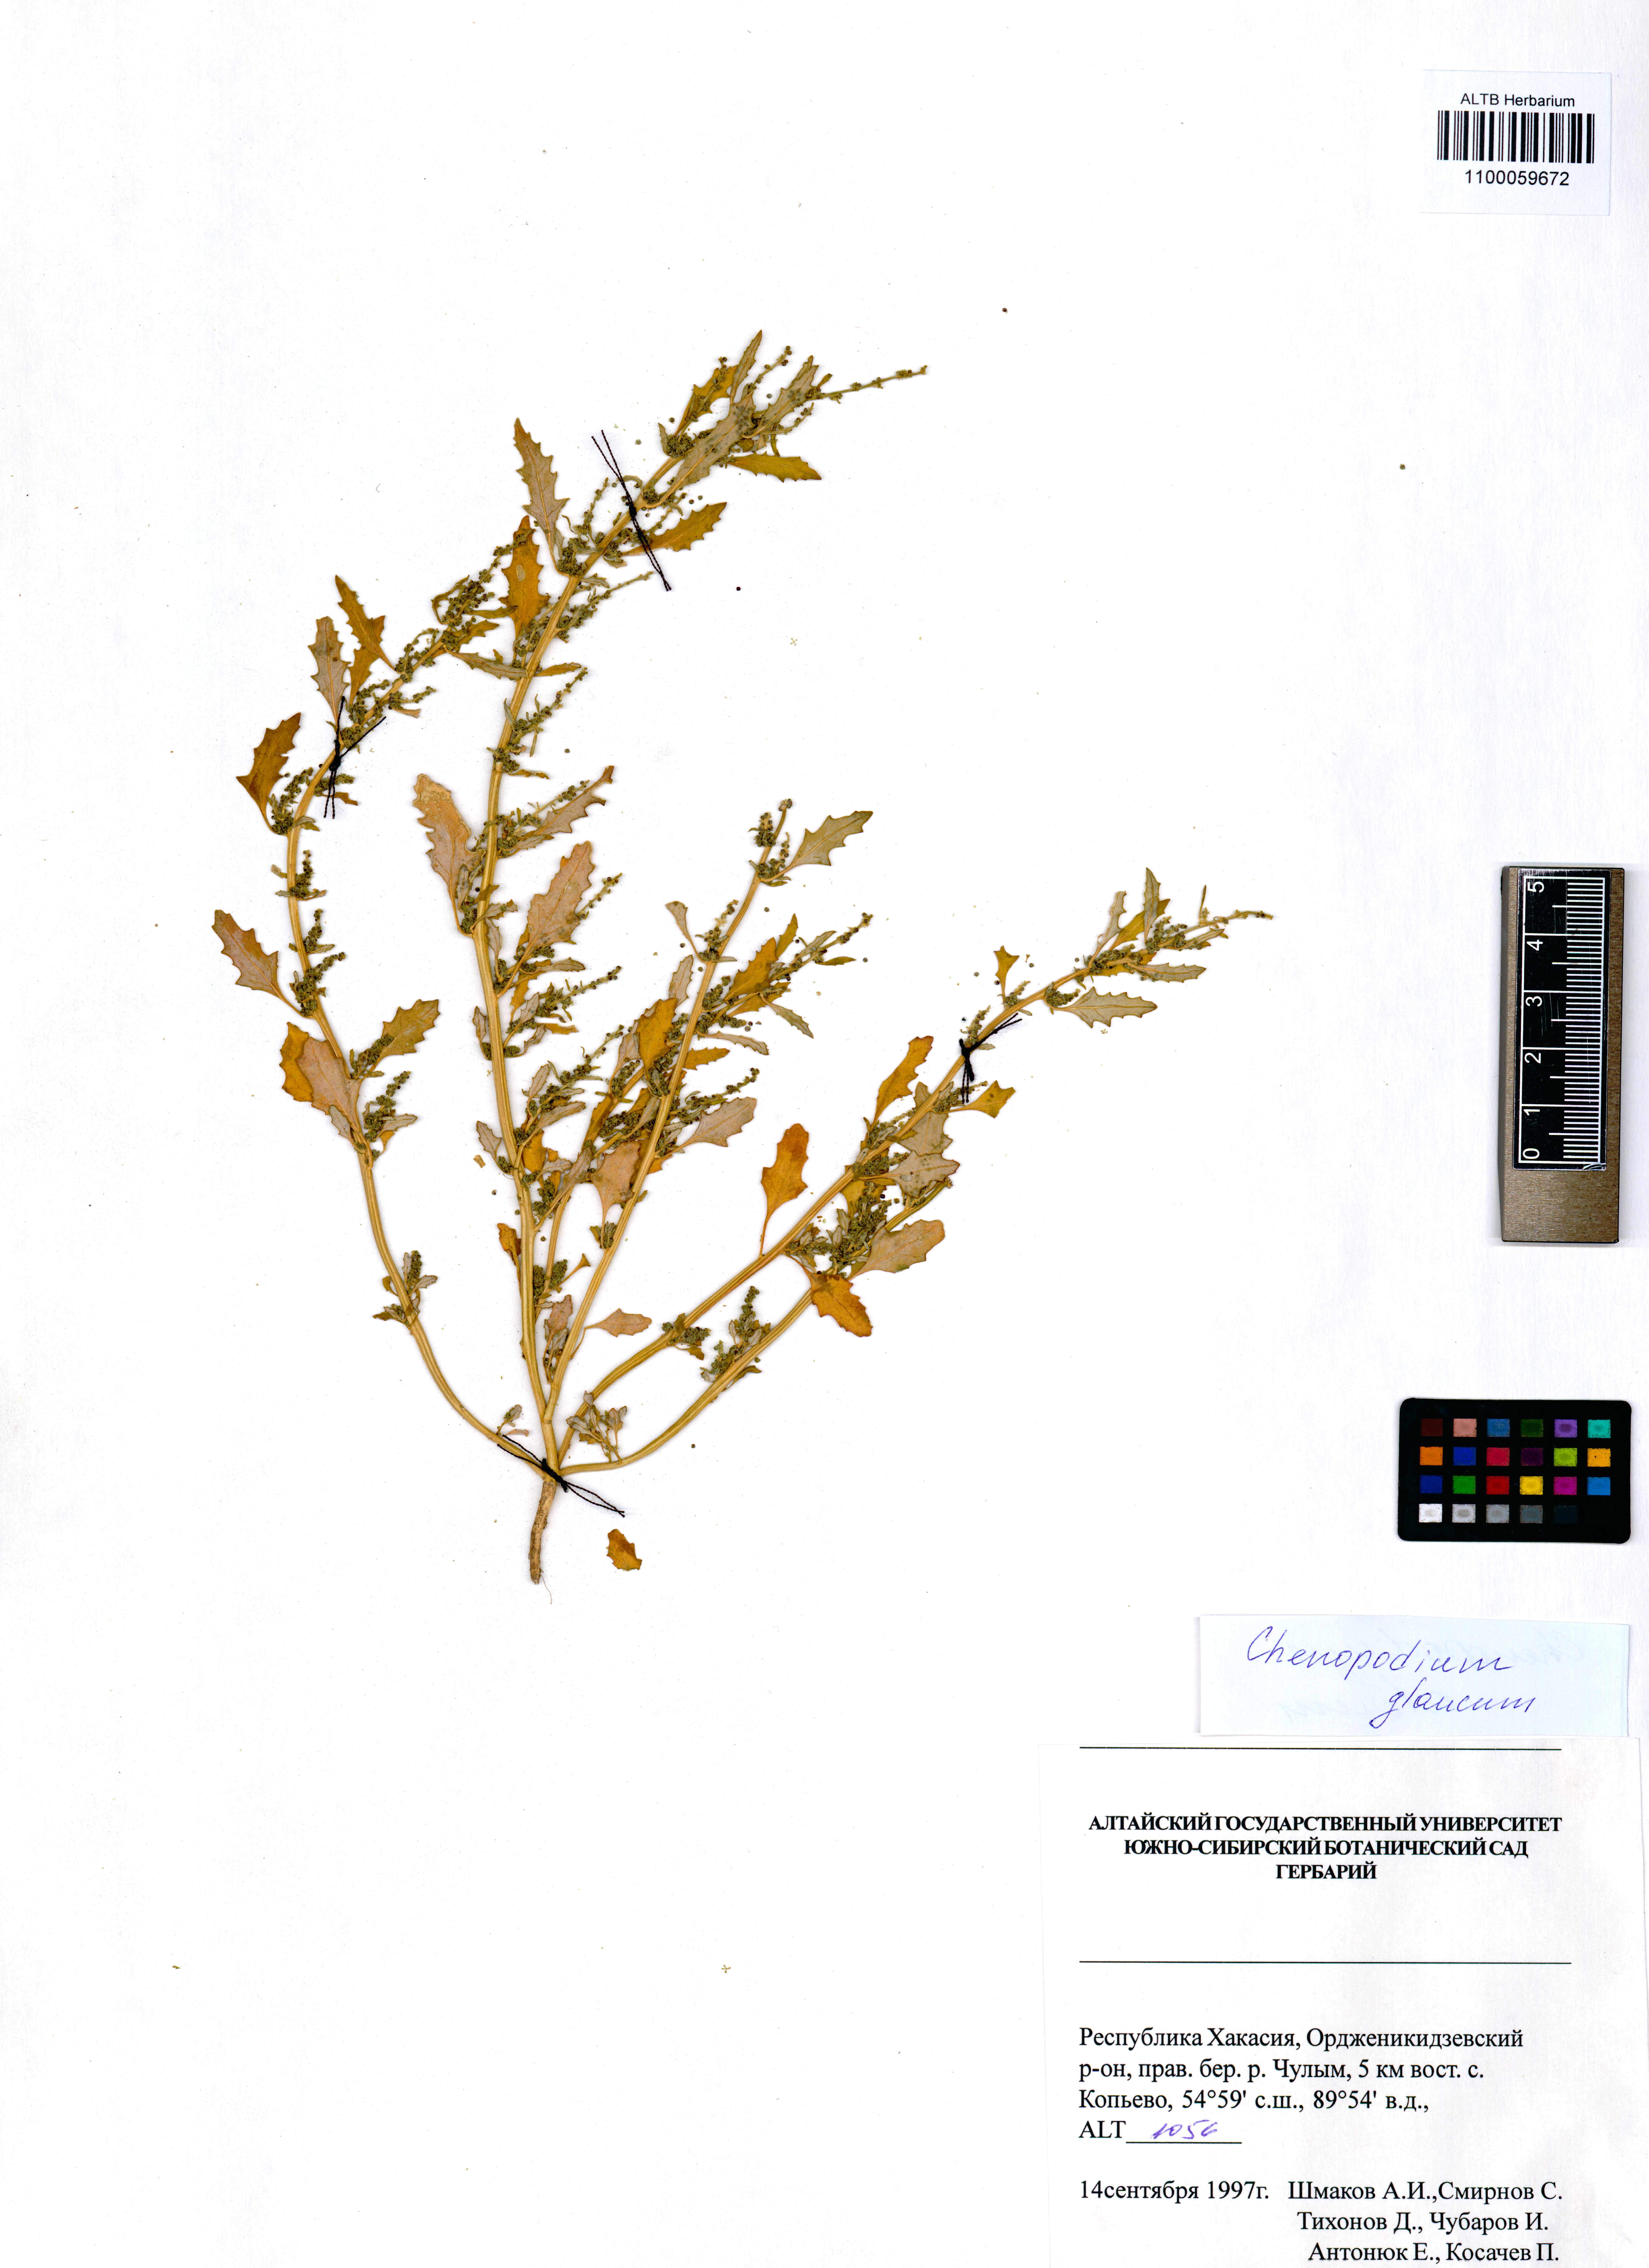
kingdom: Plantae
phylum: Tracheophyta
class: Magnoliopsida
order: Caryophyllales
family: Amaranthaceae
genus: Oxybasis
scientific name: Oxybasis glauca
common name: Glaucous goosefoot
